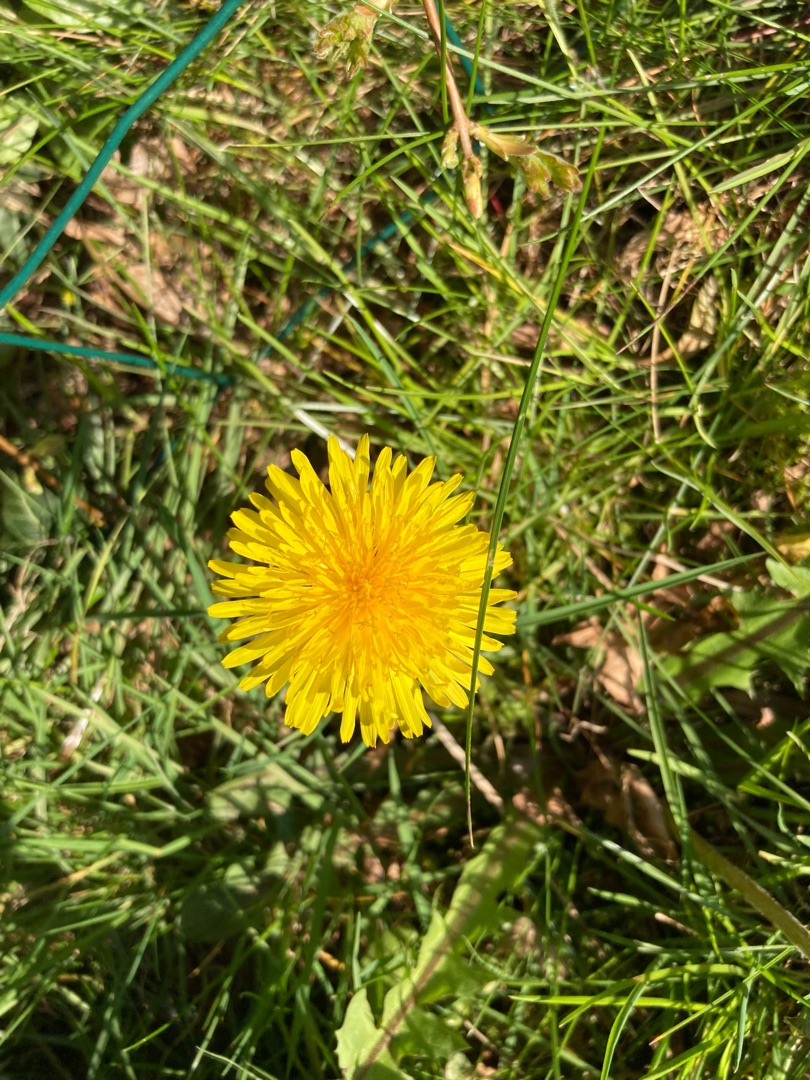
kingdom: Plantae
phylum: Tracheophyta
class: Magnoliopsida
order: Asterales
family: Asteraceae
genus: Taraxacum
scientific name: Taraxacum
